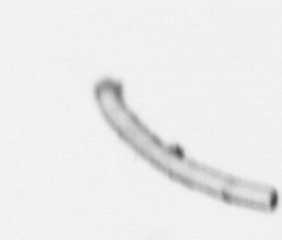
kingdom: Chromista
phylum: Ochrophyta
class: Bacillariophyceae
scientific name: Bacillariophyceae
